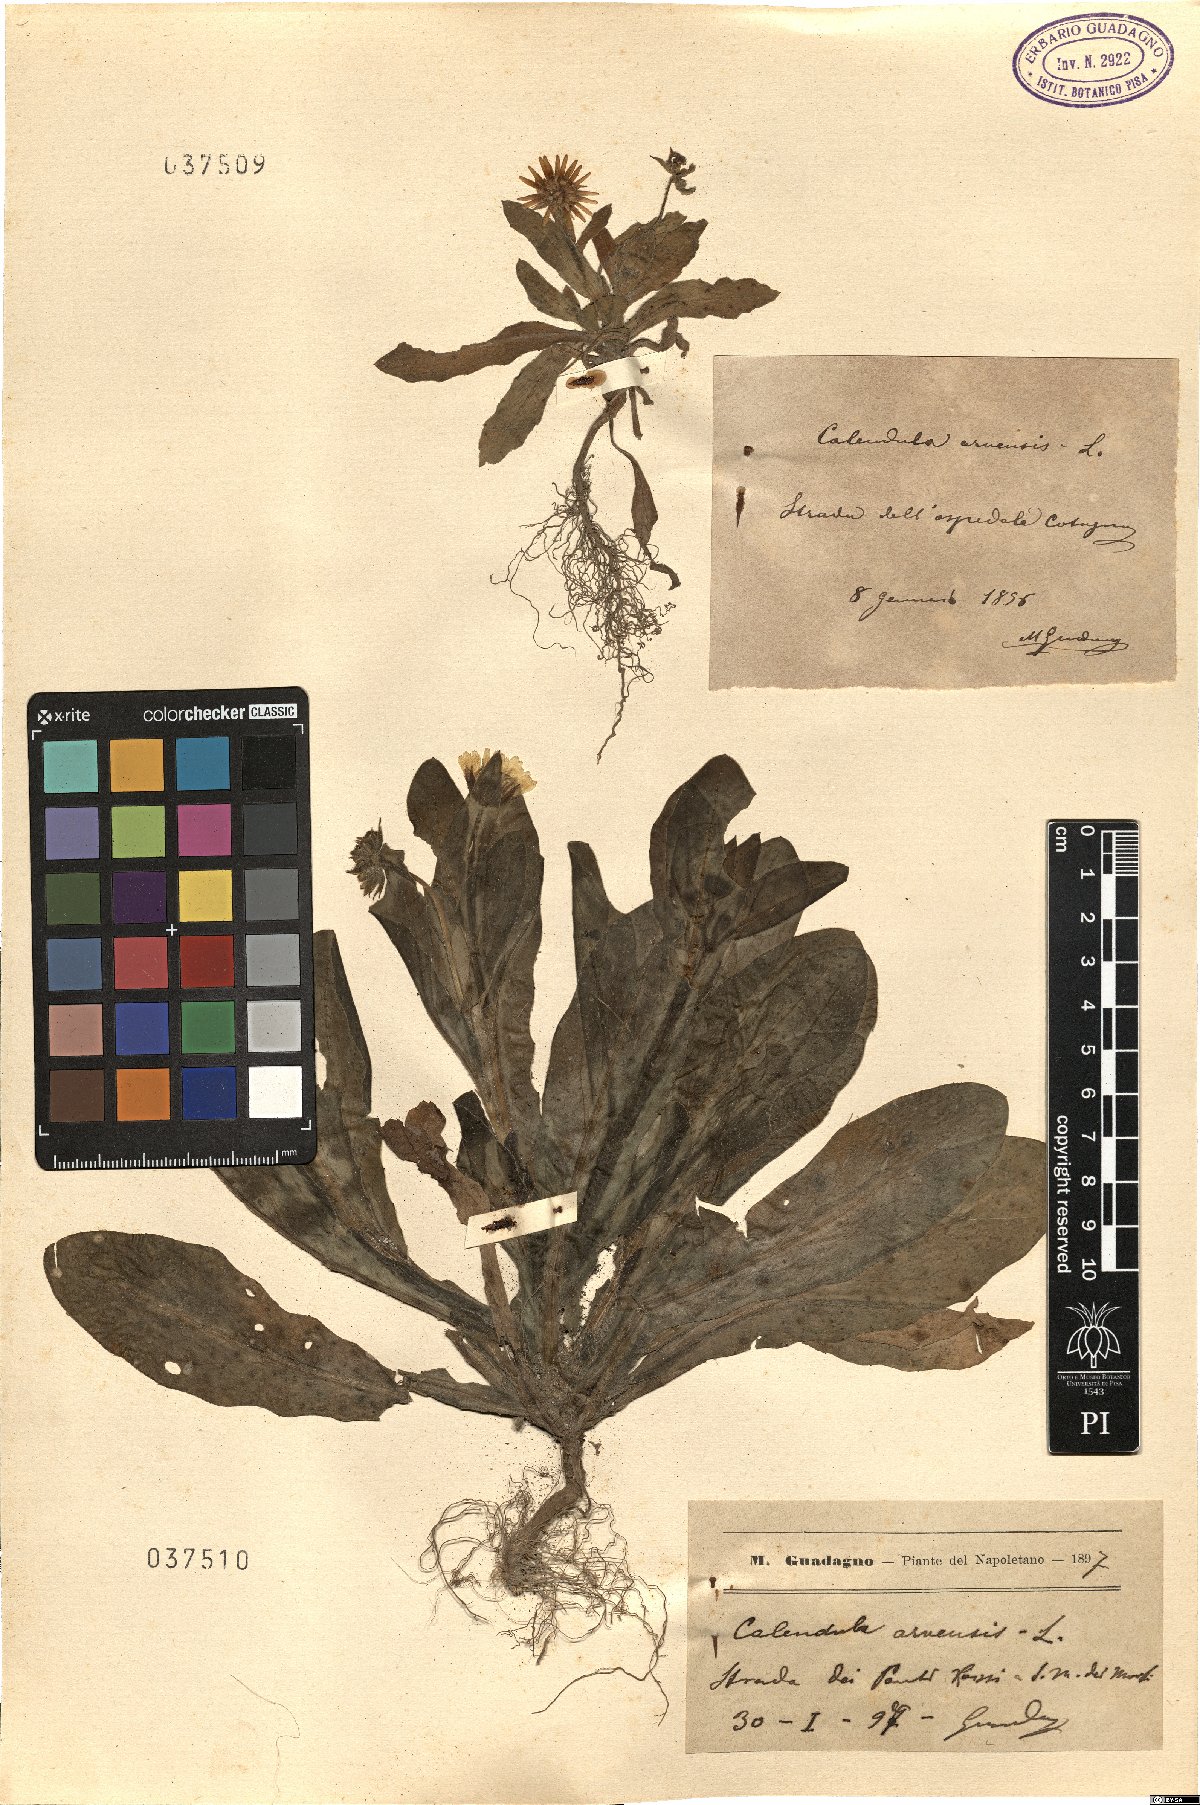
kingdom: Plantae
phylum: Tracheophyta
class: Magnoliopsida
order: Asterales
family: Asteraceae
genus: Calendula
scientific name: Calendula arvensis
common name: Field marigold
